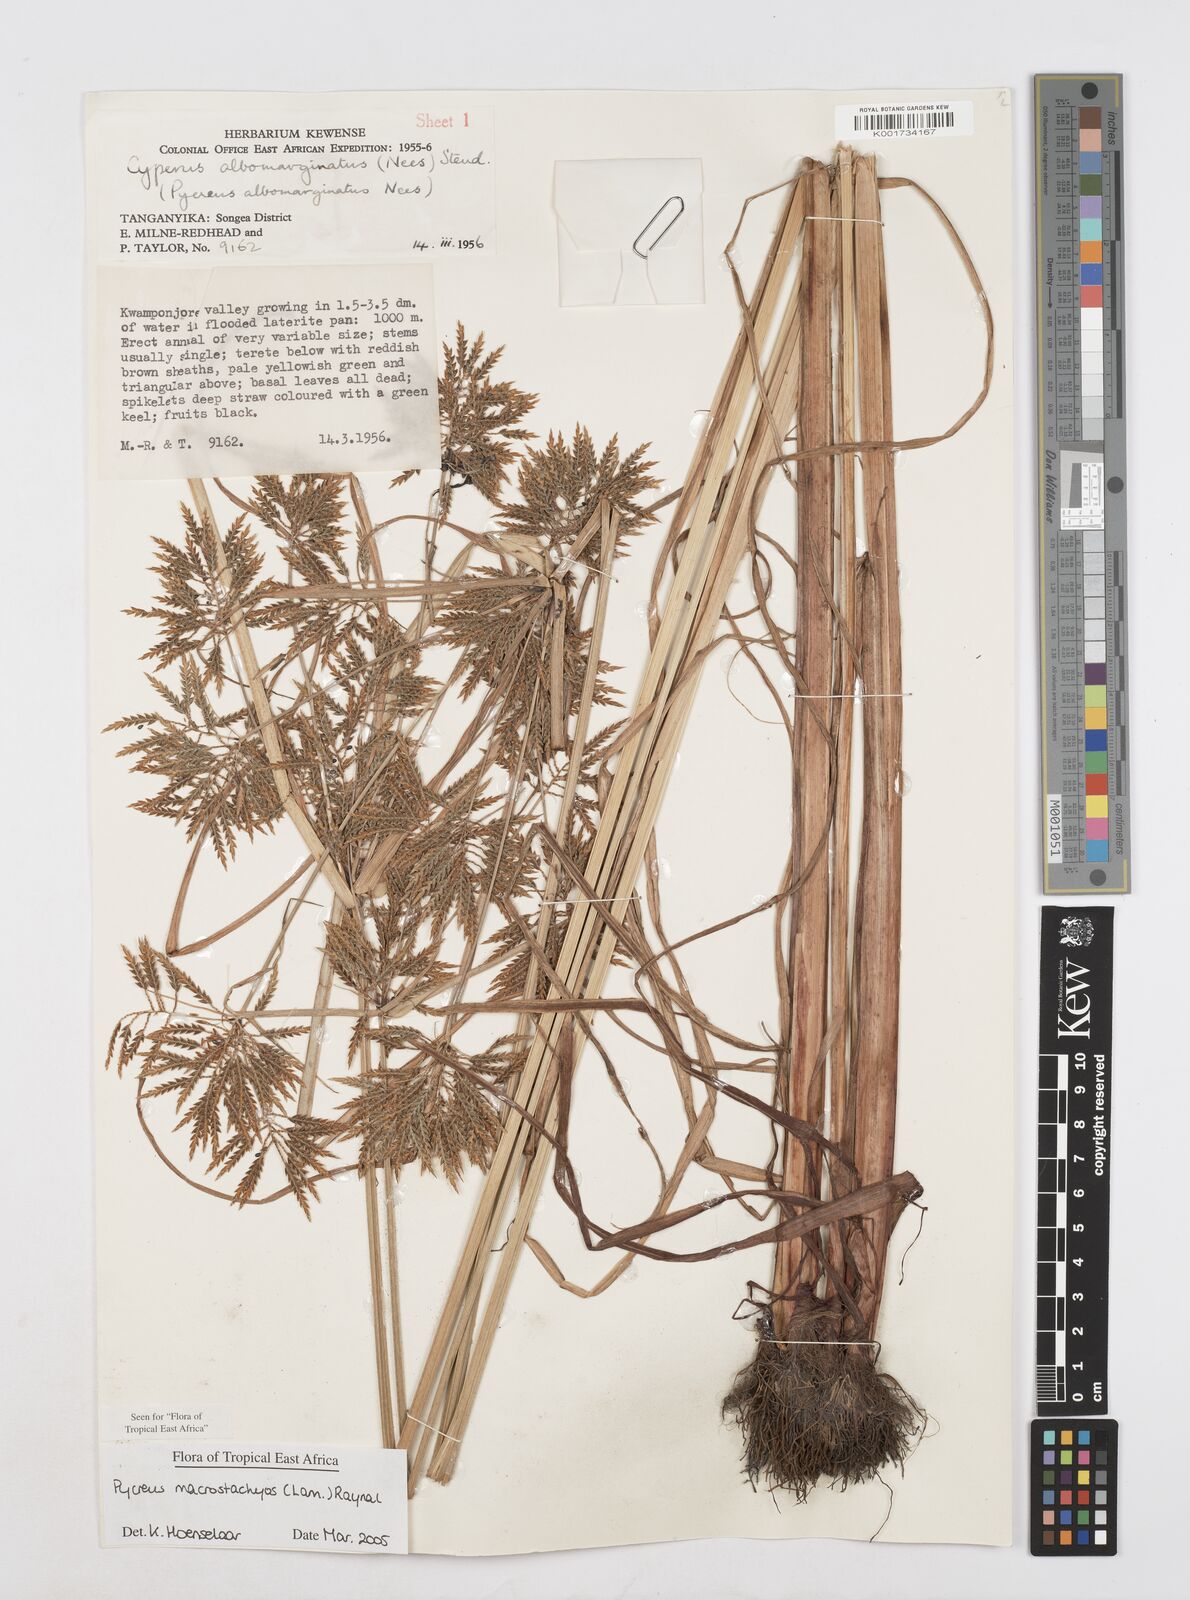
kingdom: Plantae
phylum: Tracheophyta
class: Liliopsida
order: Poales
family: Cyperaceae
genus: Cyperus
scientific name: Cyperus macrostachyos
